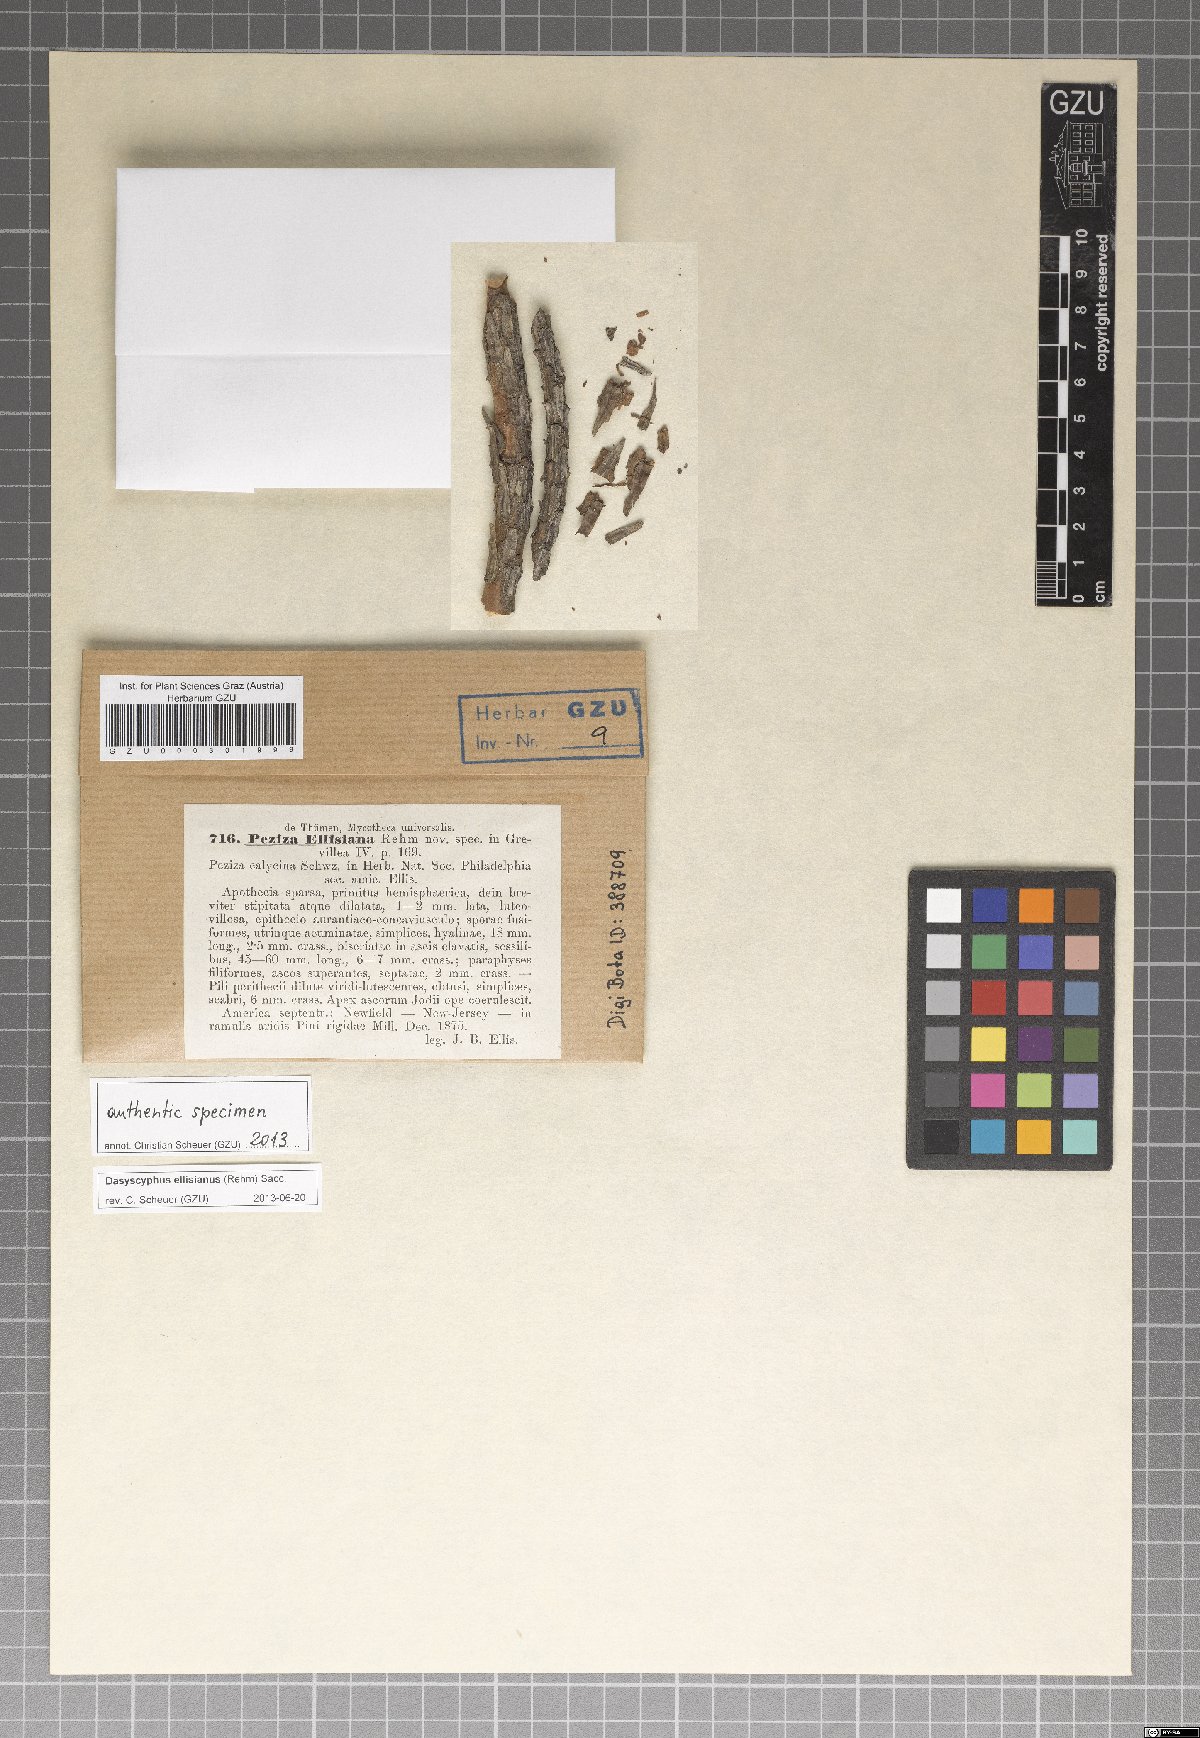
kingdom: Fungi
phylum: Ascomycota
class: Leotiomycetes
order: Helotiales
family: Lachnaceae
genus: Lachnellula
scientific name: Lachnellula ellisiana
